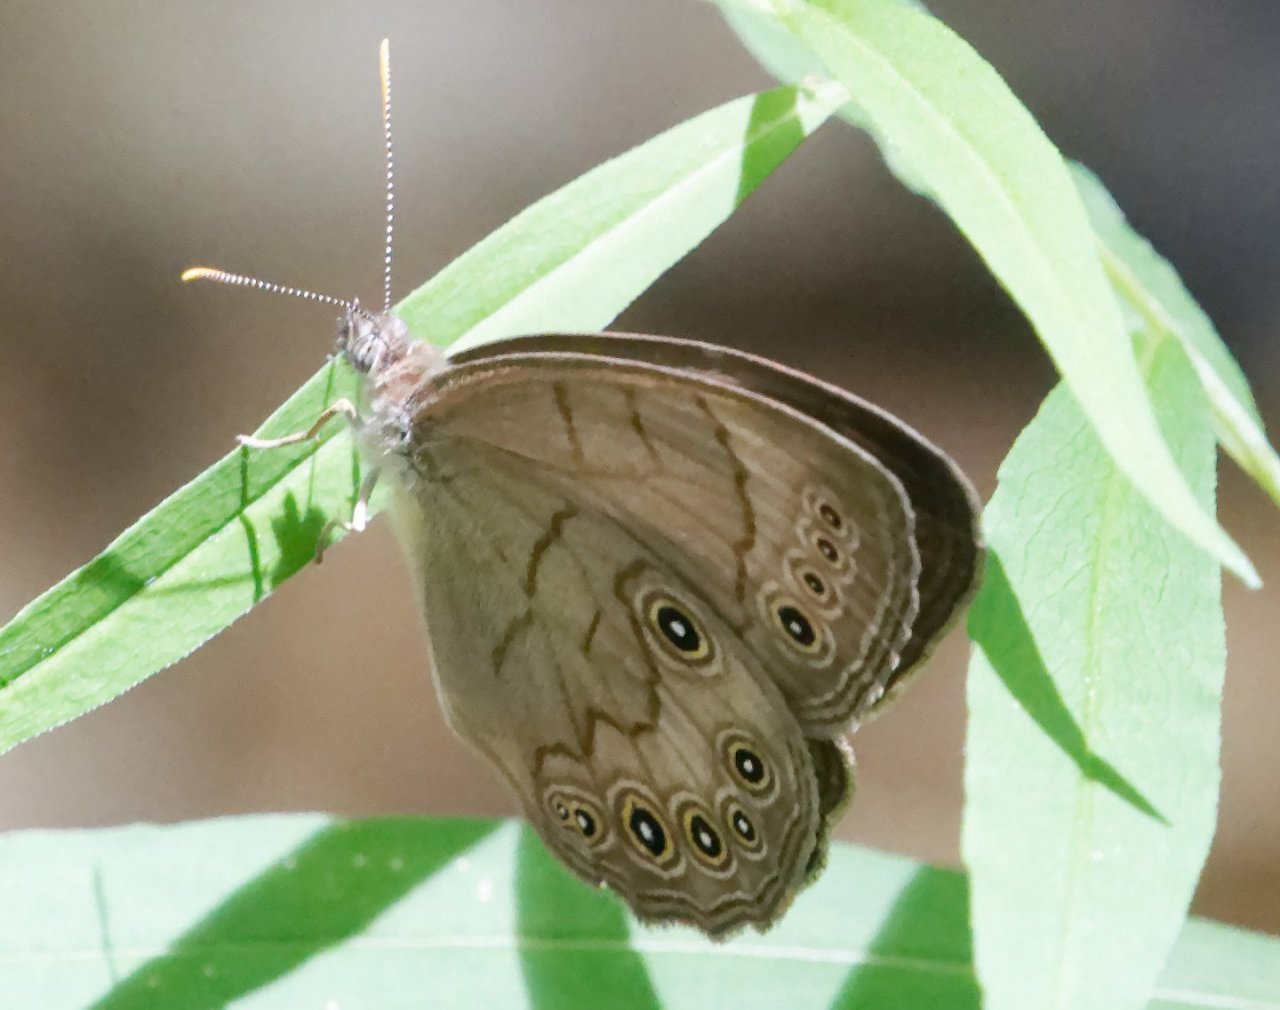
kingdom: Animalia
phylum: Arthropoda
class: Insecta
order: Lepidoptera
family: Nymphalidae
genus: Lethe
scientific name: Lethe eurydice
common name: Appalachian Eyed Brown
